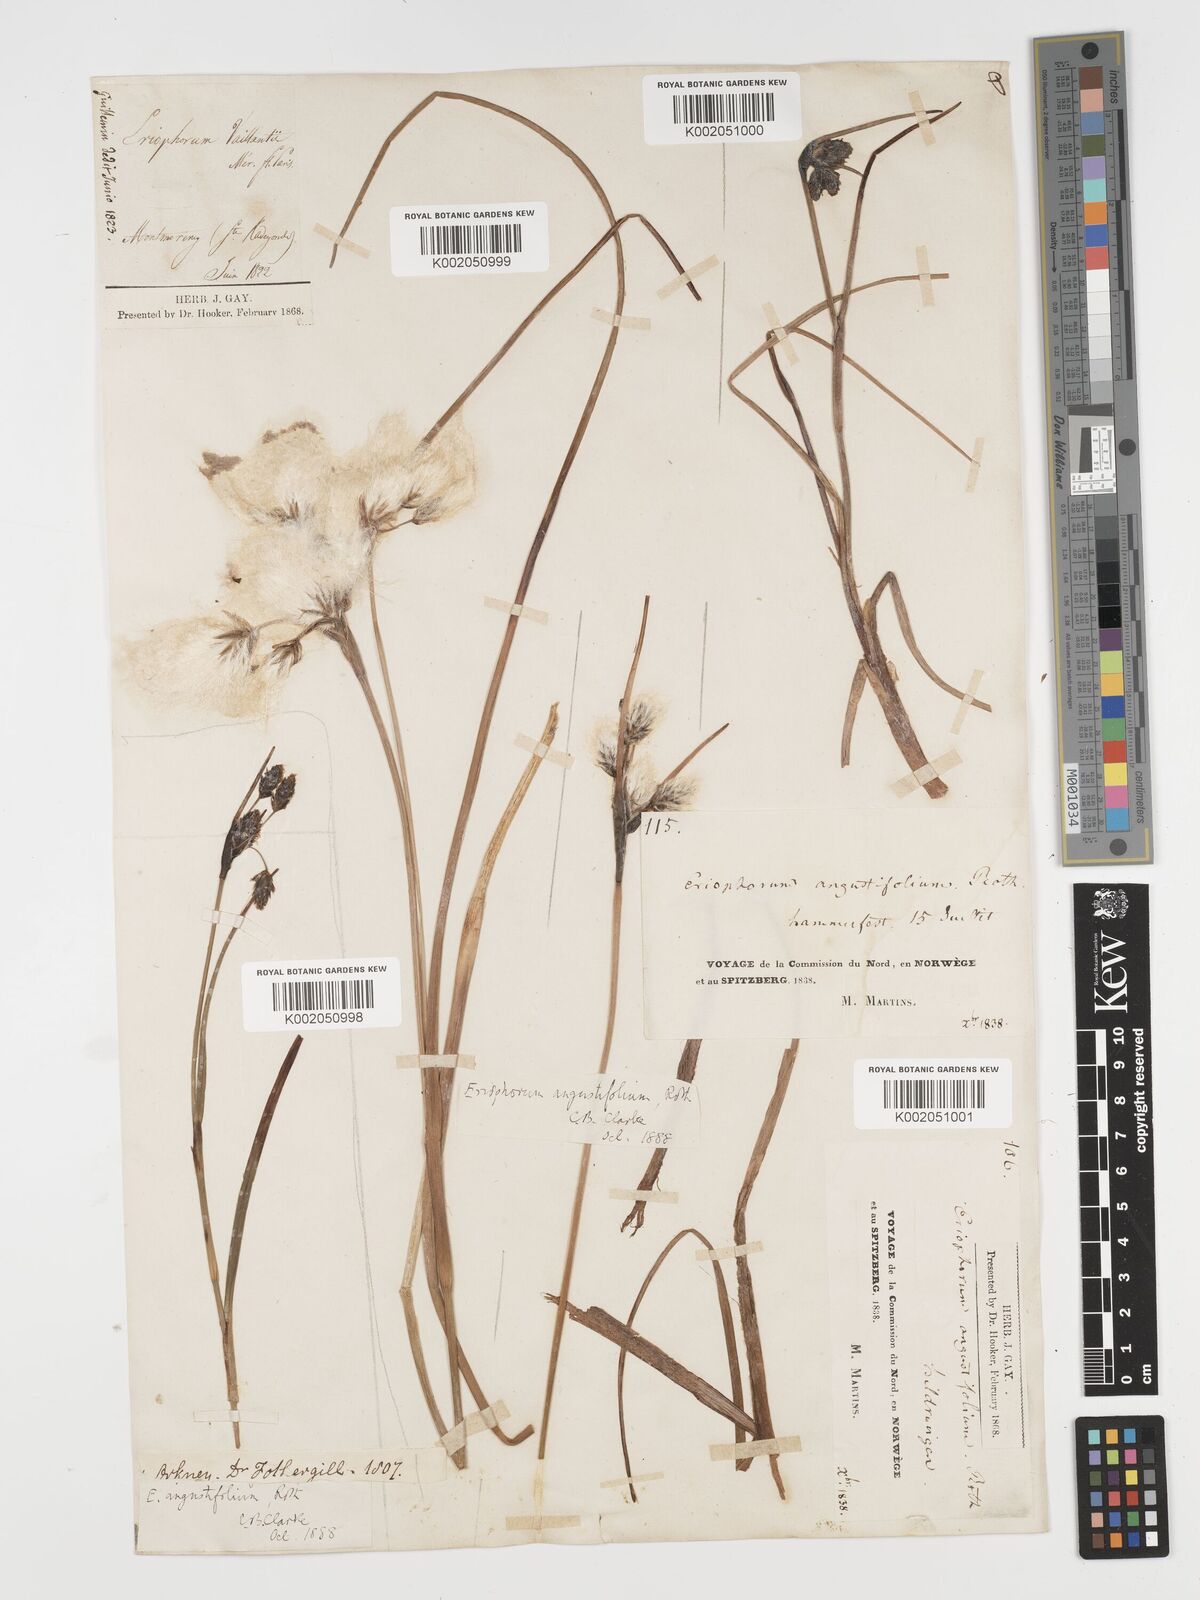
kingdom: Plantae
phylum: Tracheophyta
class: Liliopsida
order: Poales
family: Cyperaceae
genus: Eriophorum
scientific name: Eriophorum angustifolium
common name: Common cottongrass
